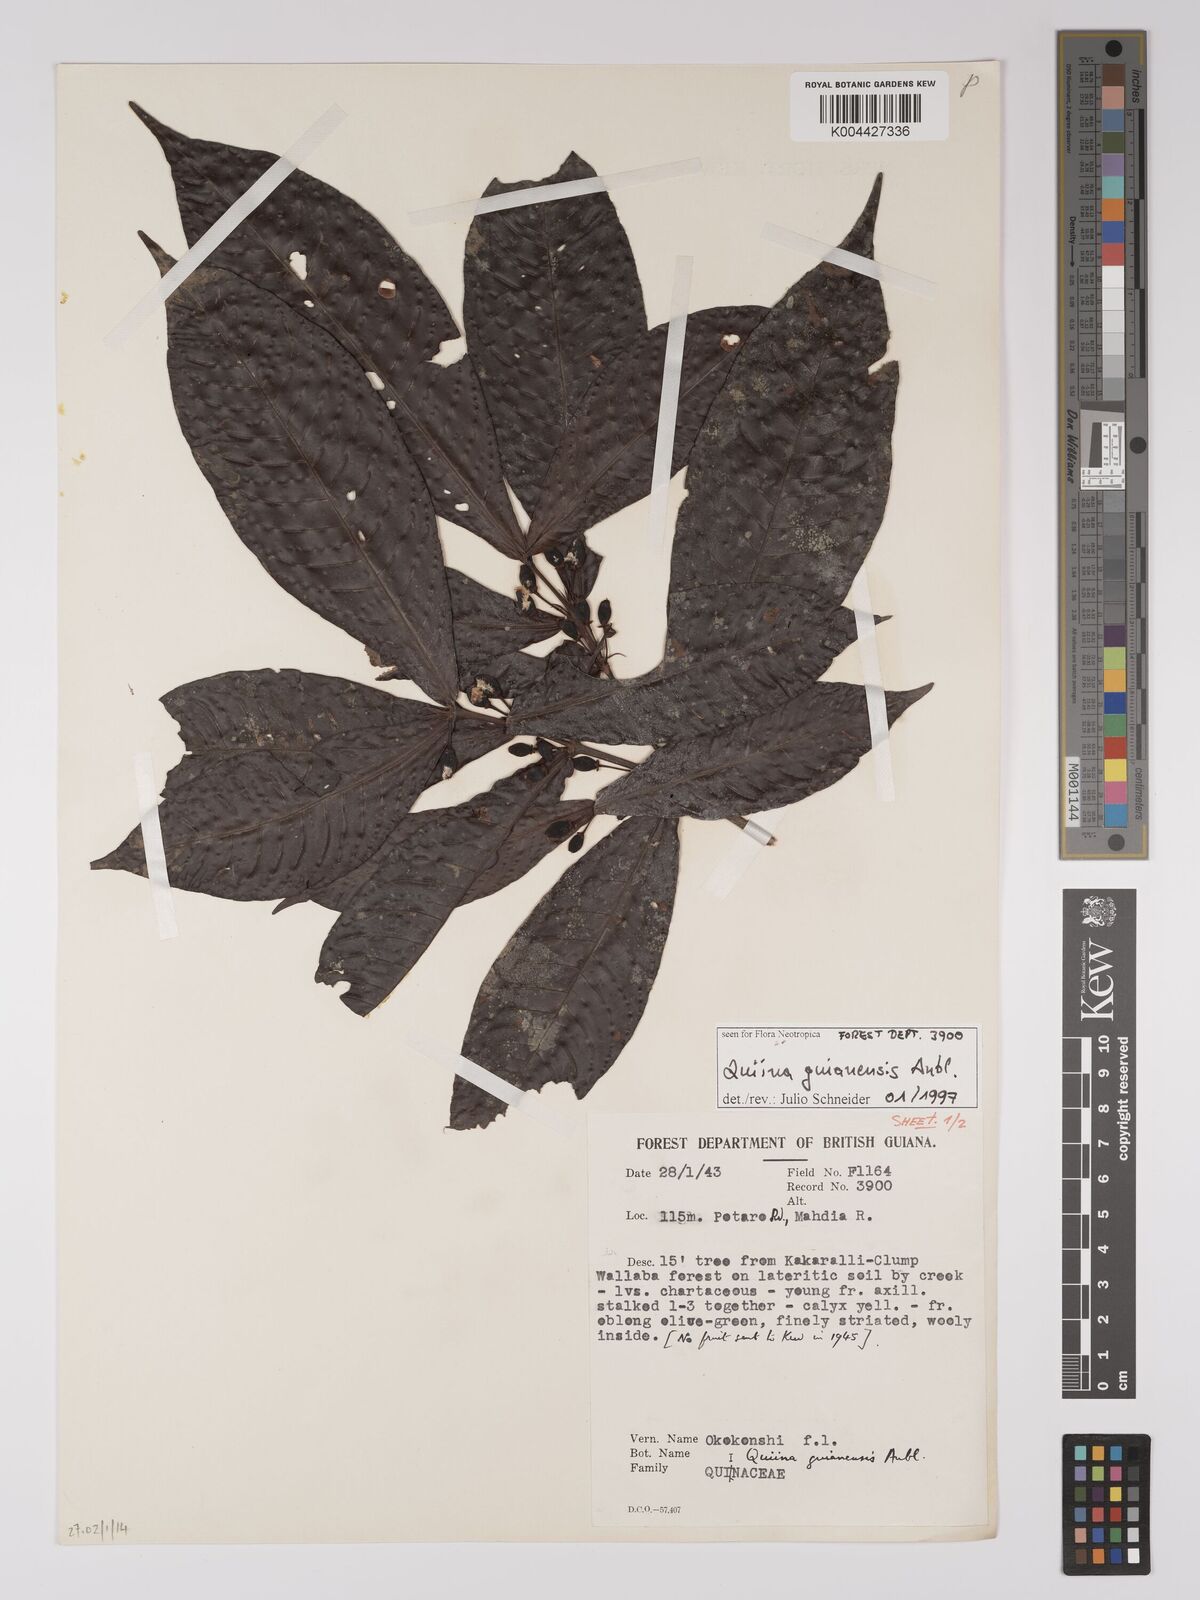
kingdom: Plantae
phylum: Tracheophyta
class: Magnoliopsida
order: Malpighiales
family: Quiinaceae
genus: Quiina
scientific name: Quiina guianensis
